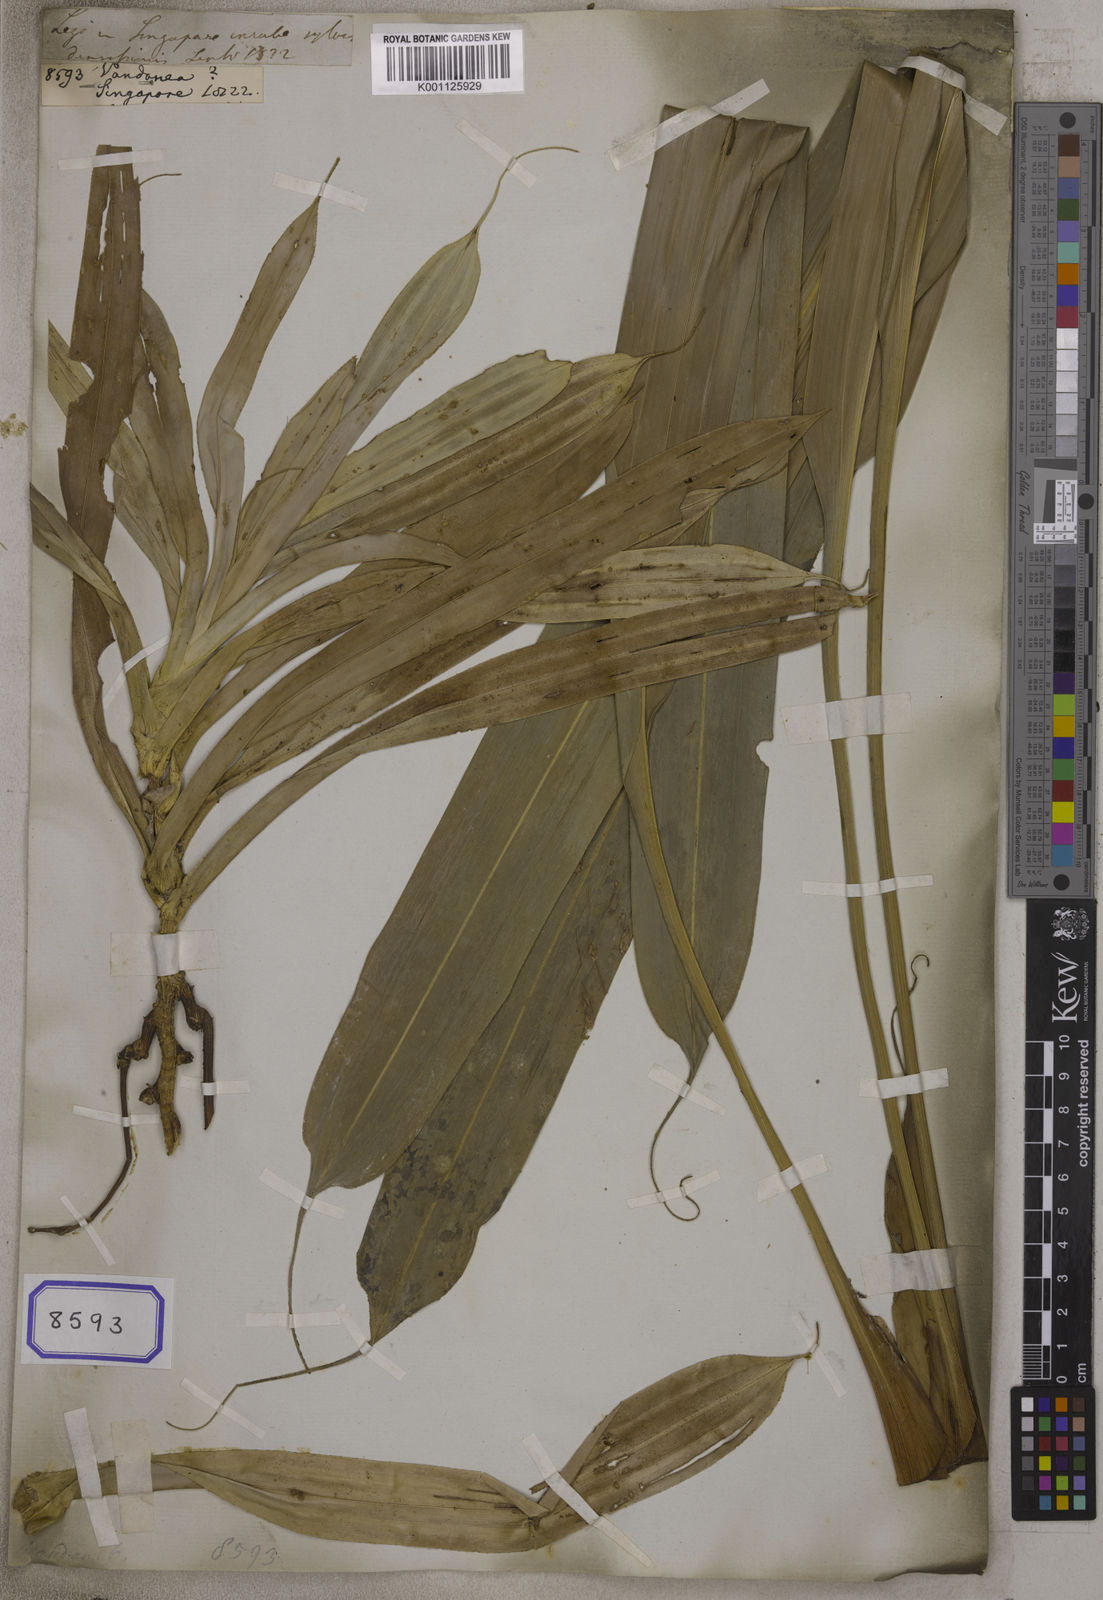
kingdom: Plantae
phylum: Tracheophyta
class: Liliopsida
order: Pandanales
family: Pandanaceae
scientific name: Pandanaceae
